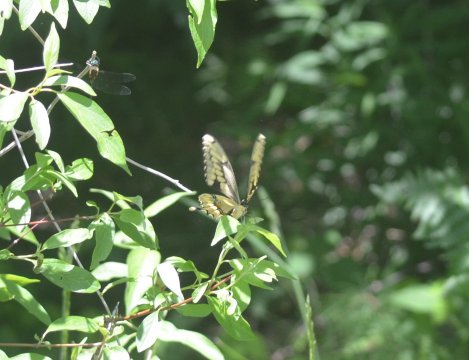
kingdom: Animalia
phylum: Arthropoda
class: Insecta
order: Lepidoptera
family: Papilionidae
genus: Papilio
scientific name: Papilio cresphontes
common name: Eastern Giant Swallowtail
